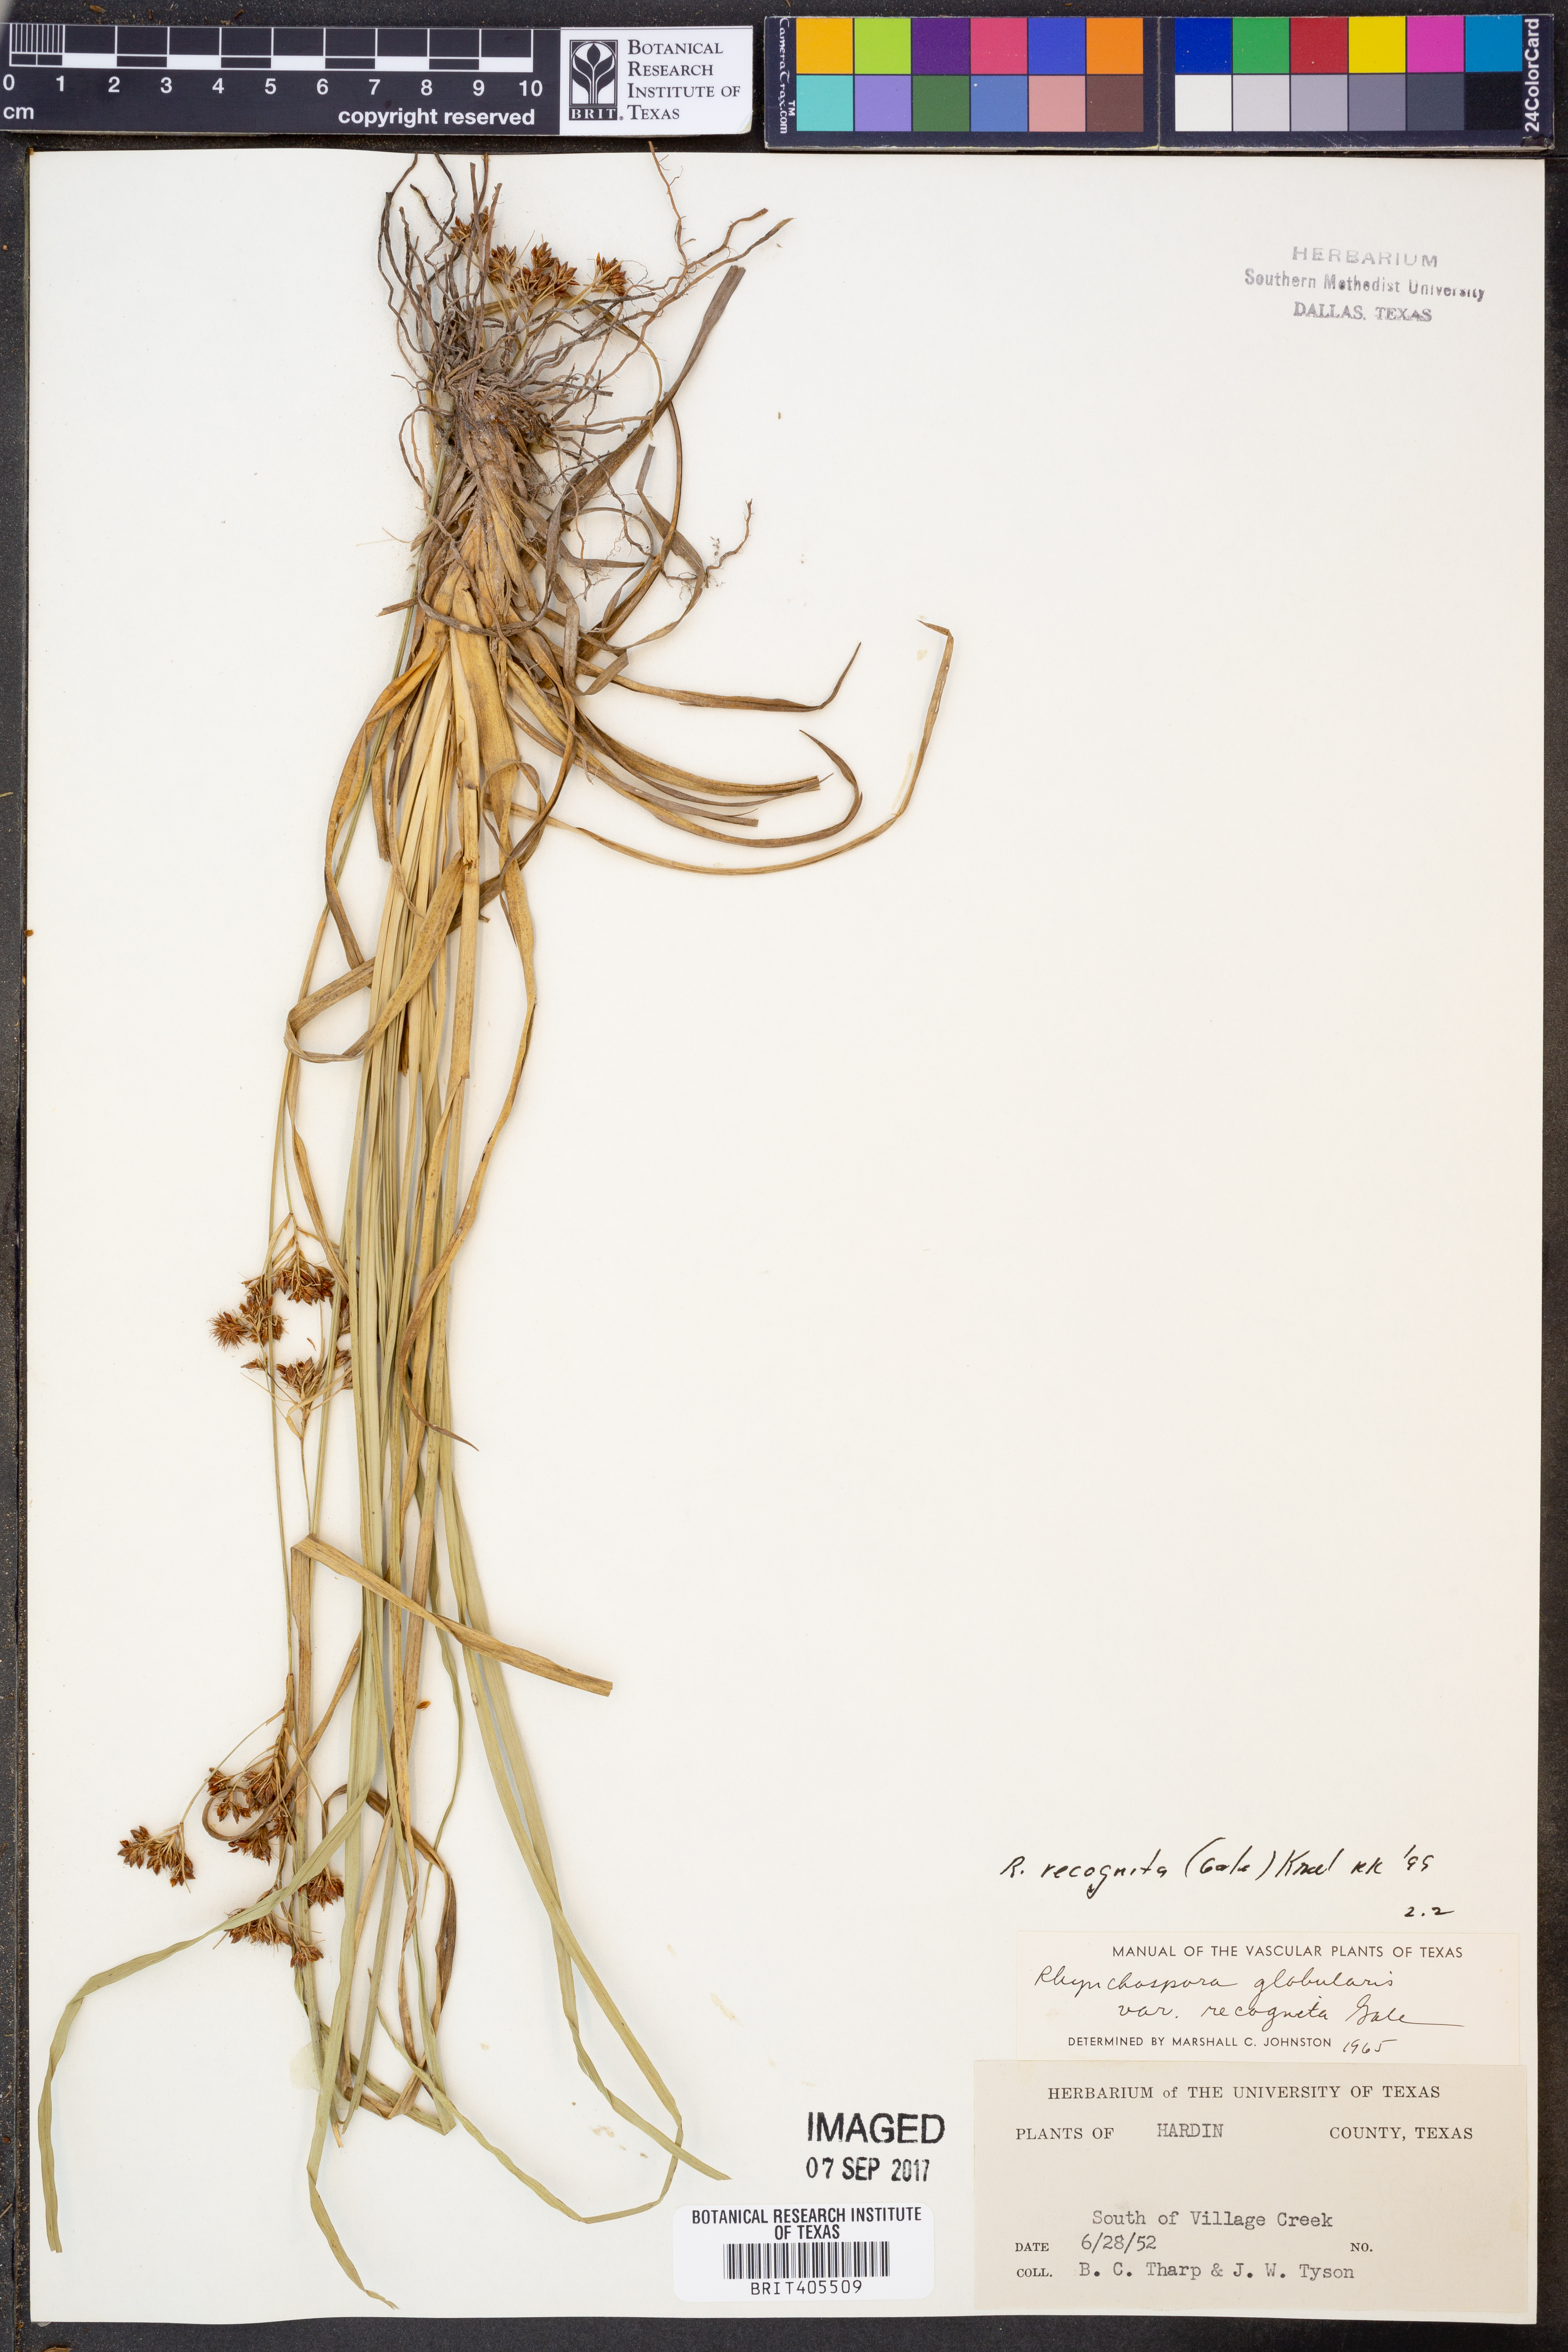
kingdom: Plantae
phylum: Tracheophyta
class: Liliopsida
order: Poales
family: Cyperaceae
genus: Rhynchospora
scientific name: Rhynchospora recognita
